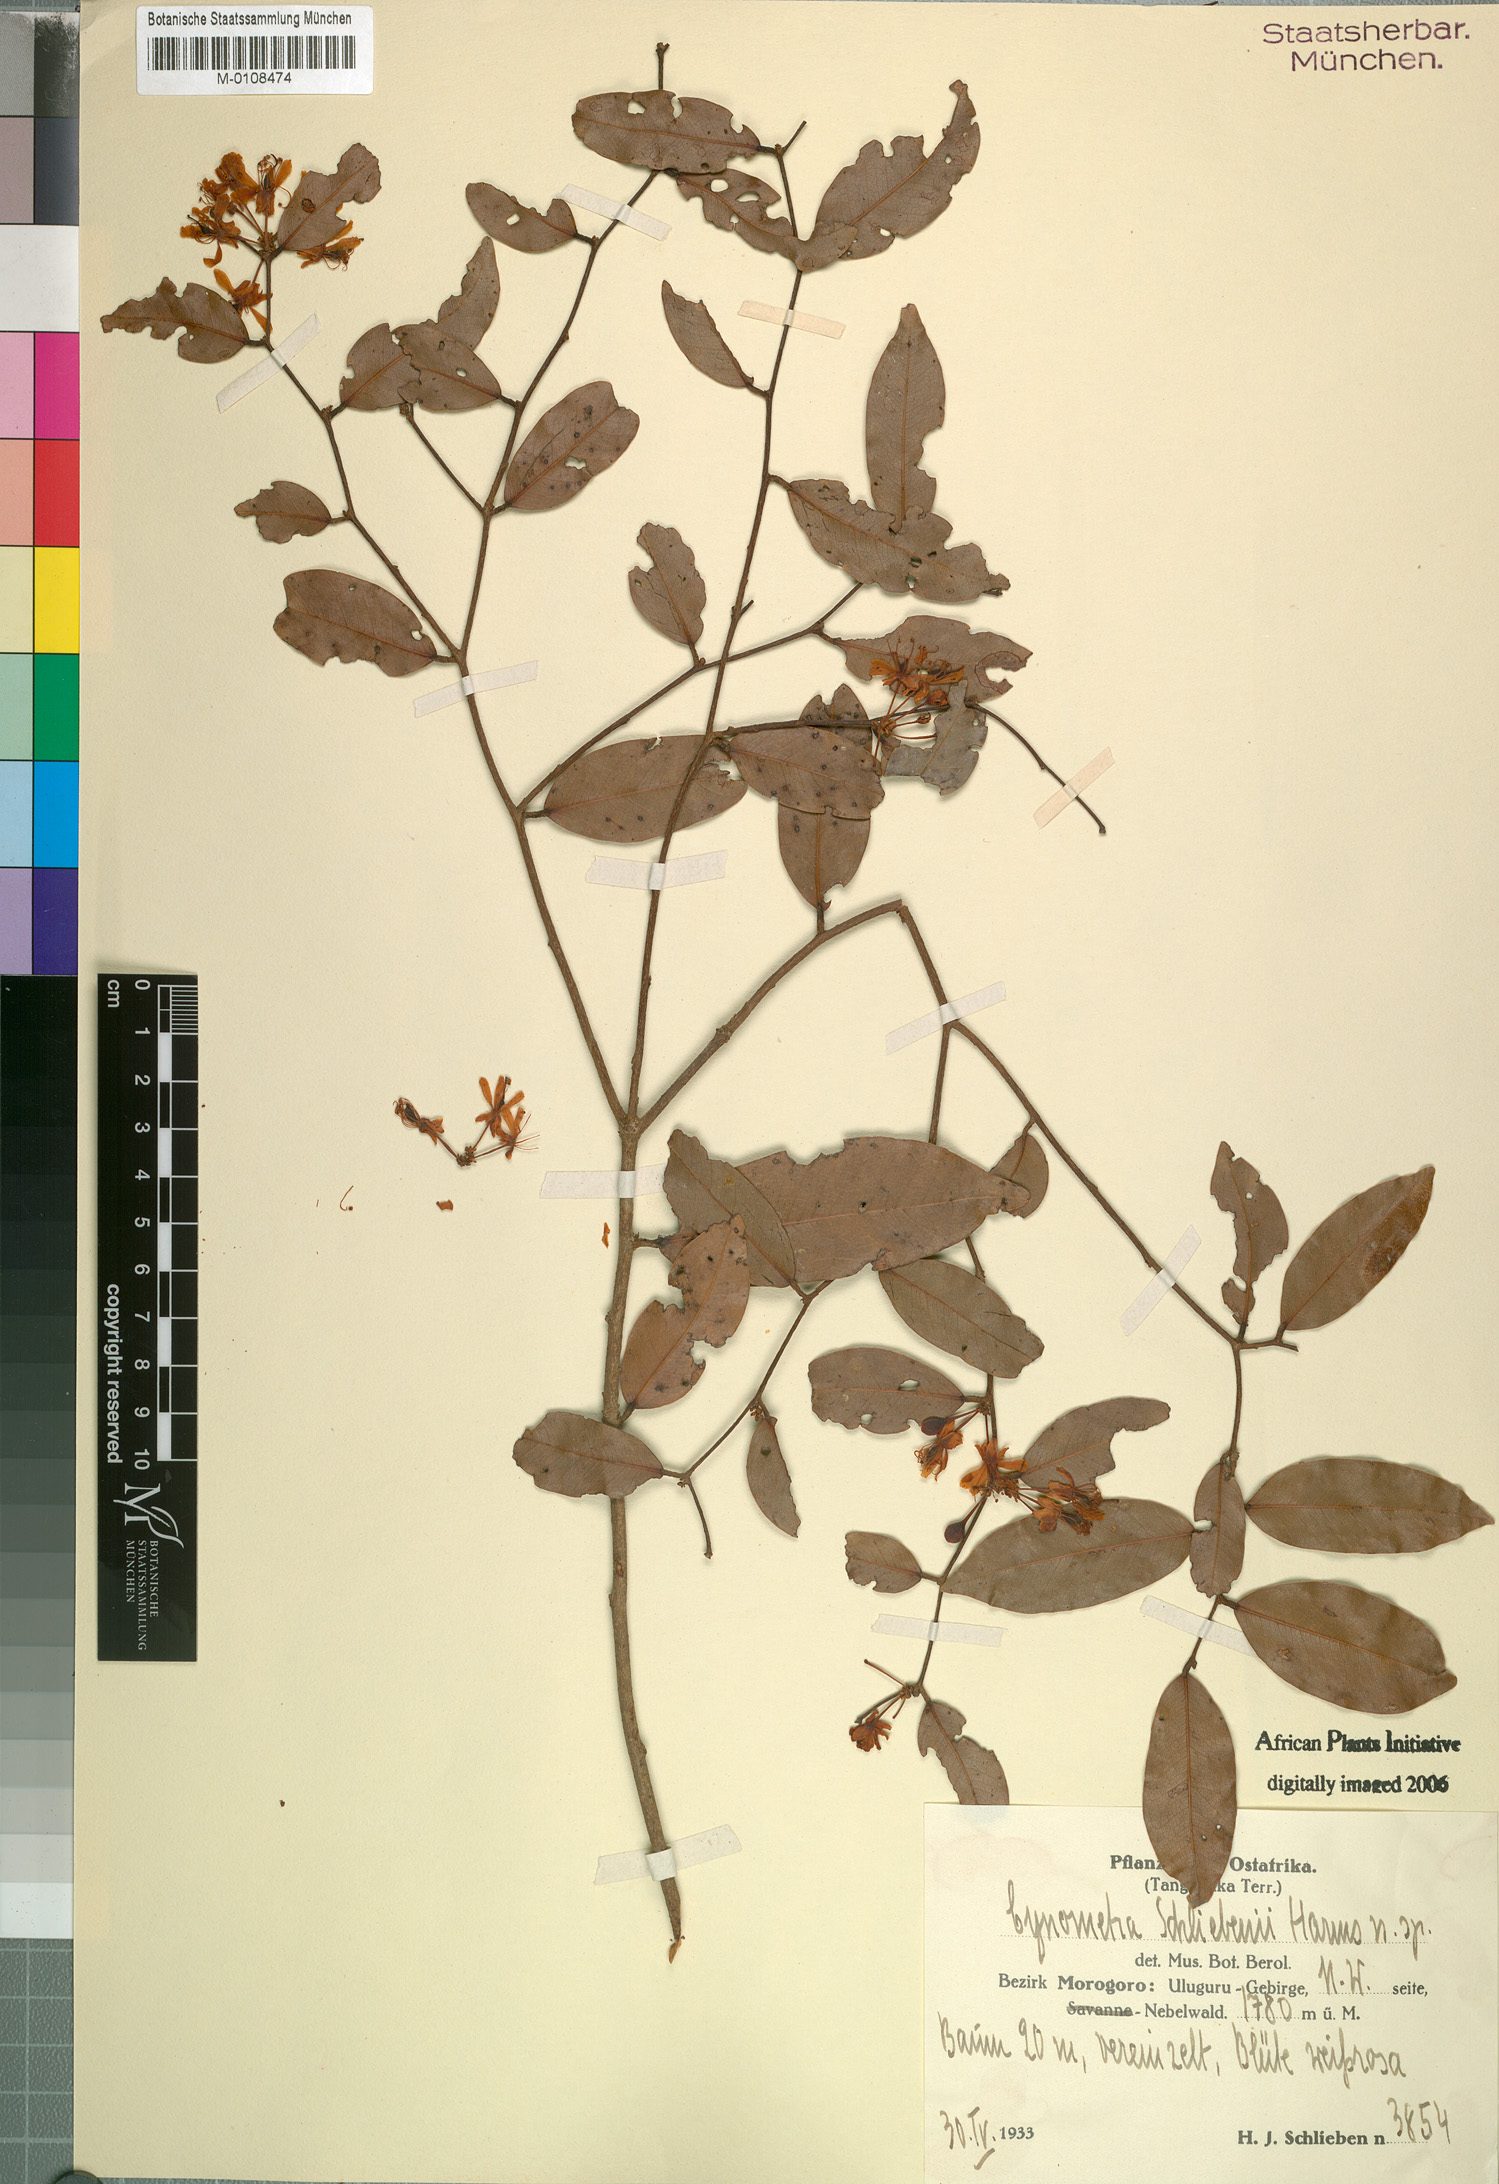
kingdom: Plantae
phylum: Tracheophyta
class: Magnoliopsida
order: Fabales
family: Fabaceae
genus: Zenkerella
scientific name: Zenkerella schliebenii
